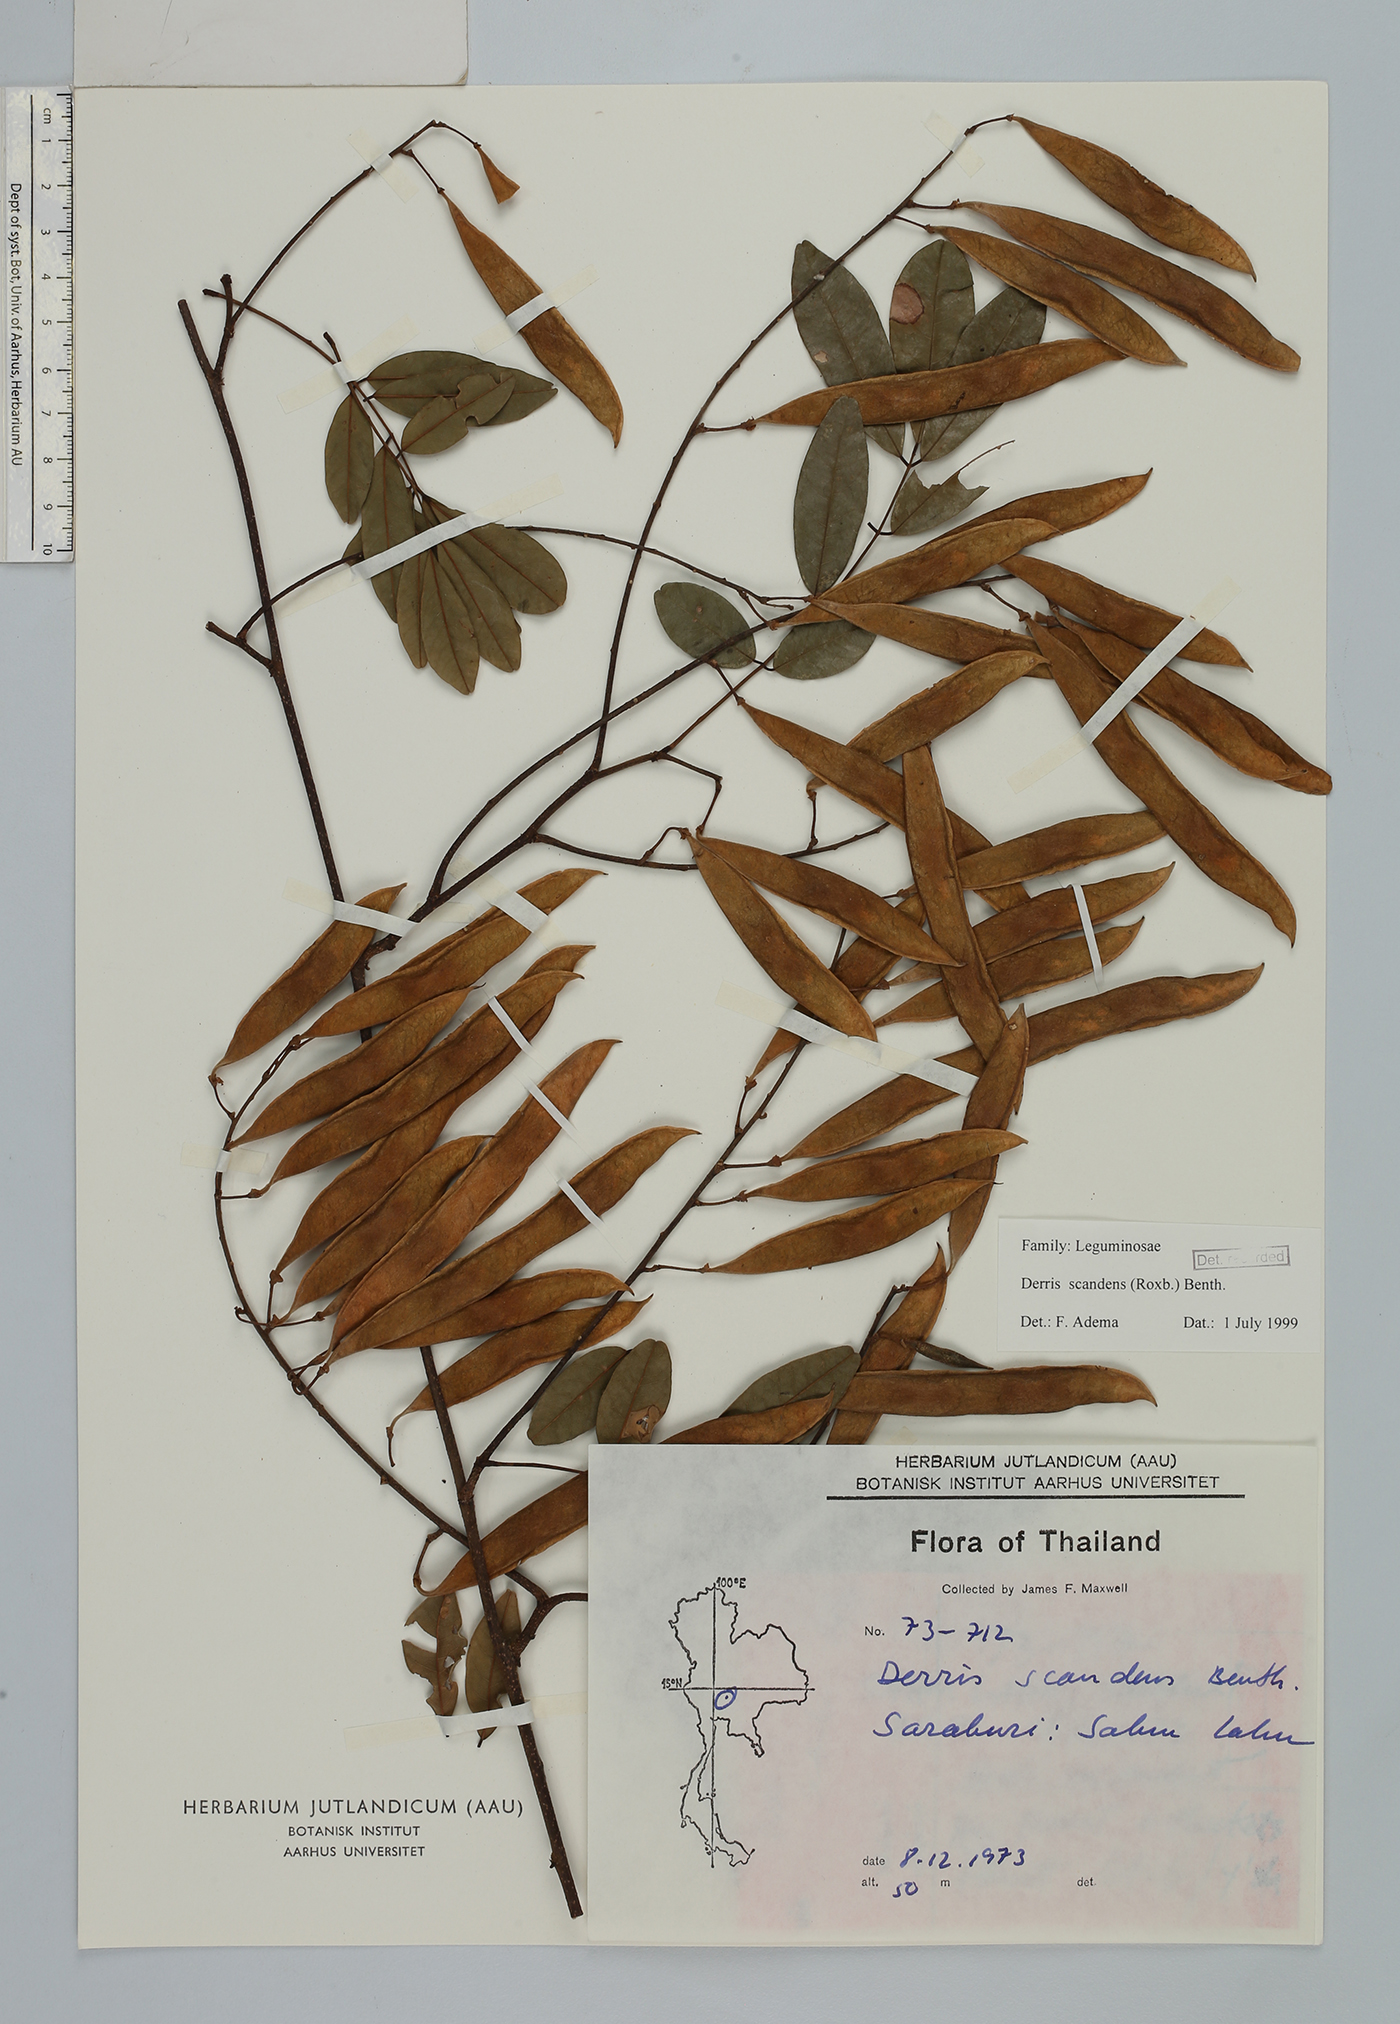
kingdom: Plantae
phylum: Tracheophyta
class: Magnoliopsida
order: Fabales
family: Fabaceae
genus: Brachypterum
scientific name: Brachypterum scandens
